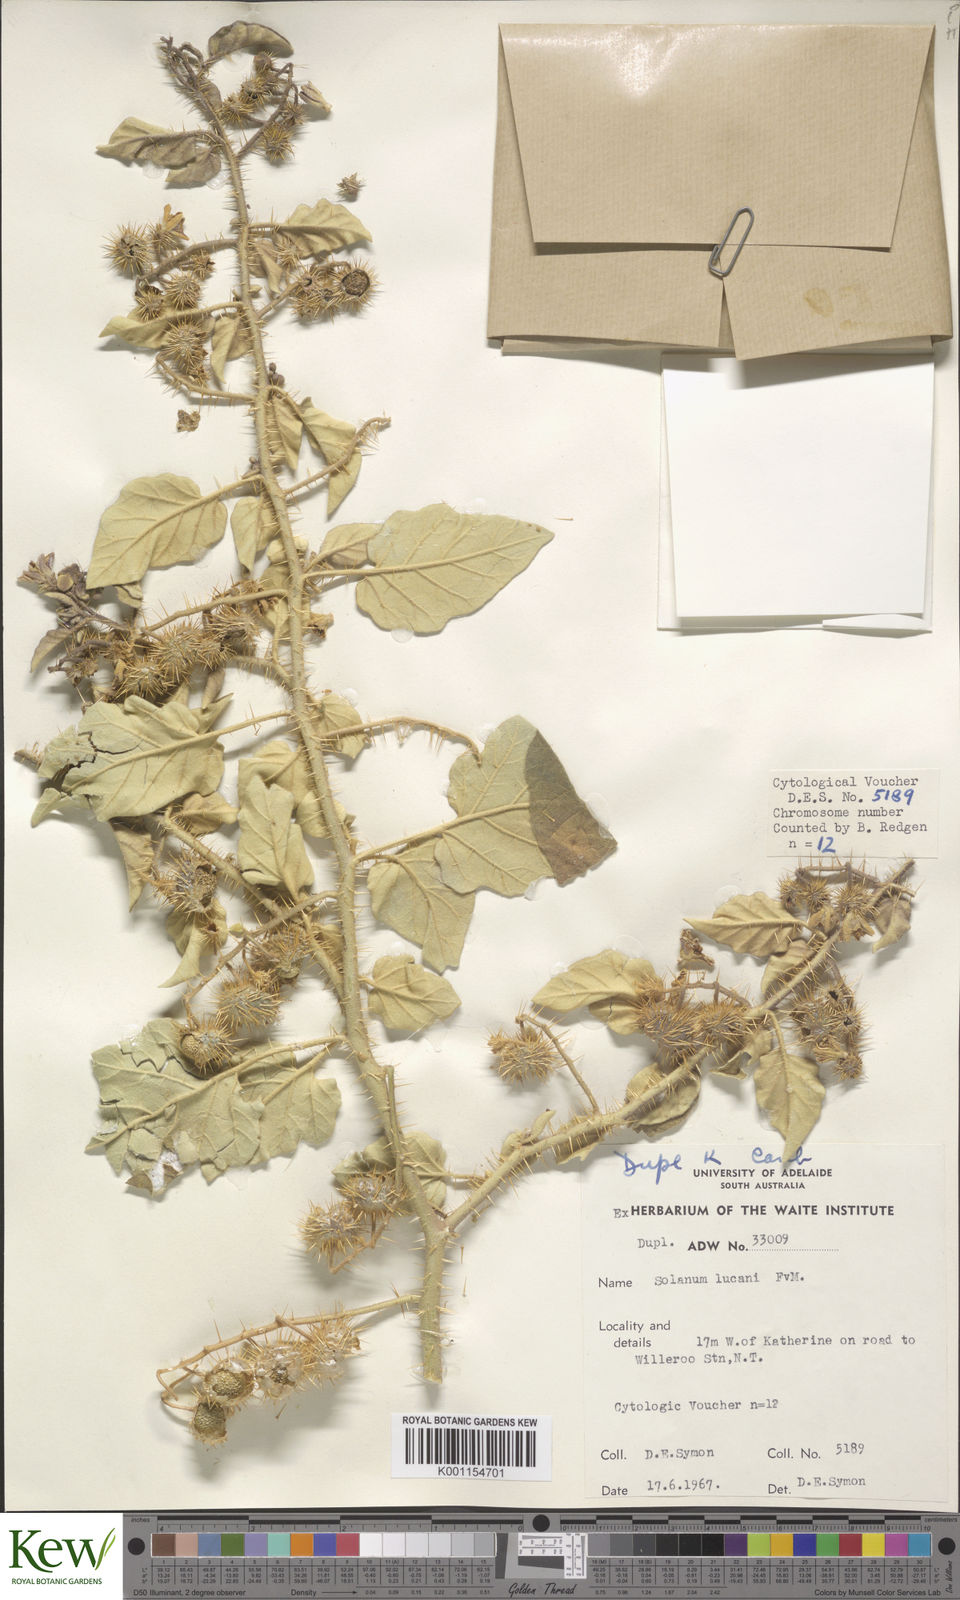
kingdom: Plantae
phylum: Tracheophyta
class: Magnoliopsida
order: Solanales
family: Solanaceae
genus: Solanum
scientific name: Solanum lucani
